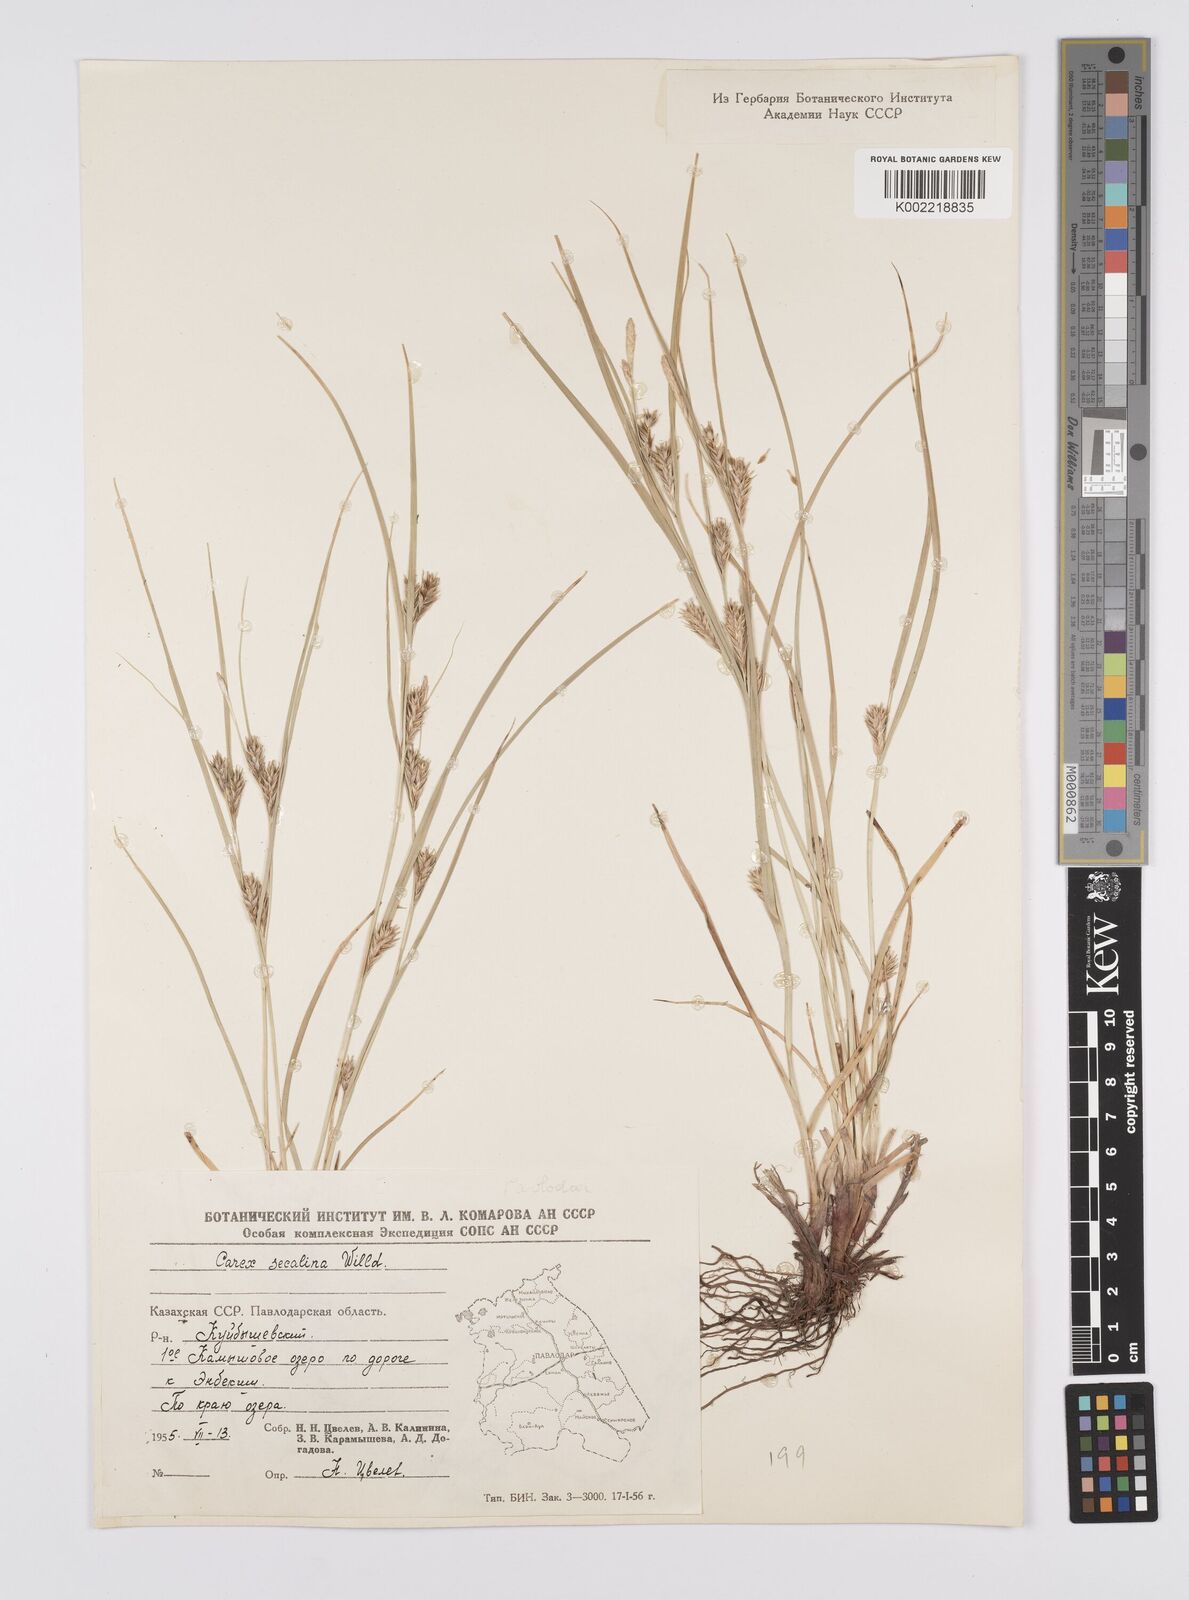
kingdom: Plantae
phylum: Tracheophyta
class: Liliopsida
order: Poales
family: Cyperaceae
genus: Carex
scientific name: Carex secalina
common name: Rye sedge
